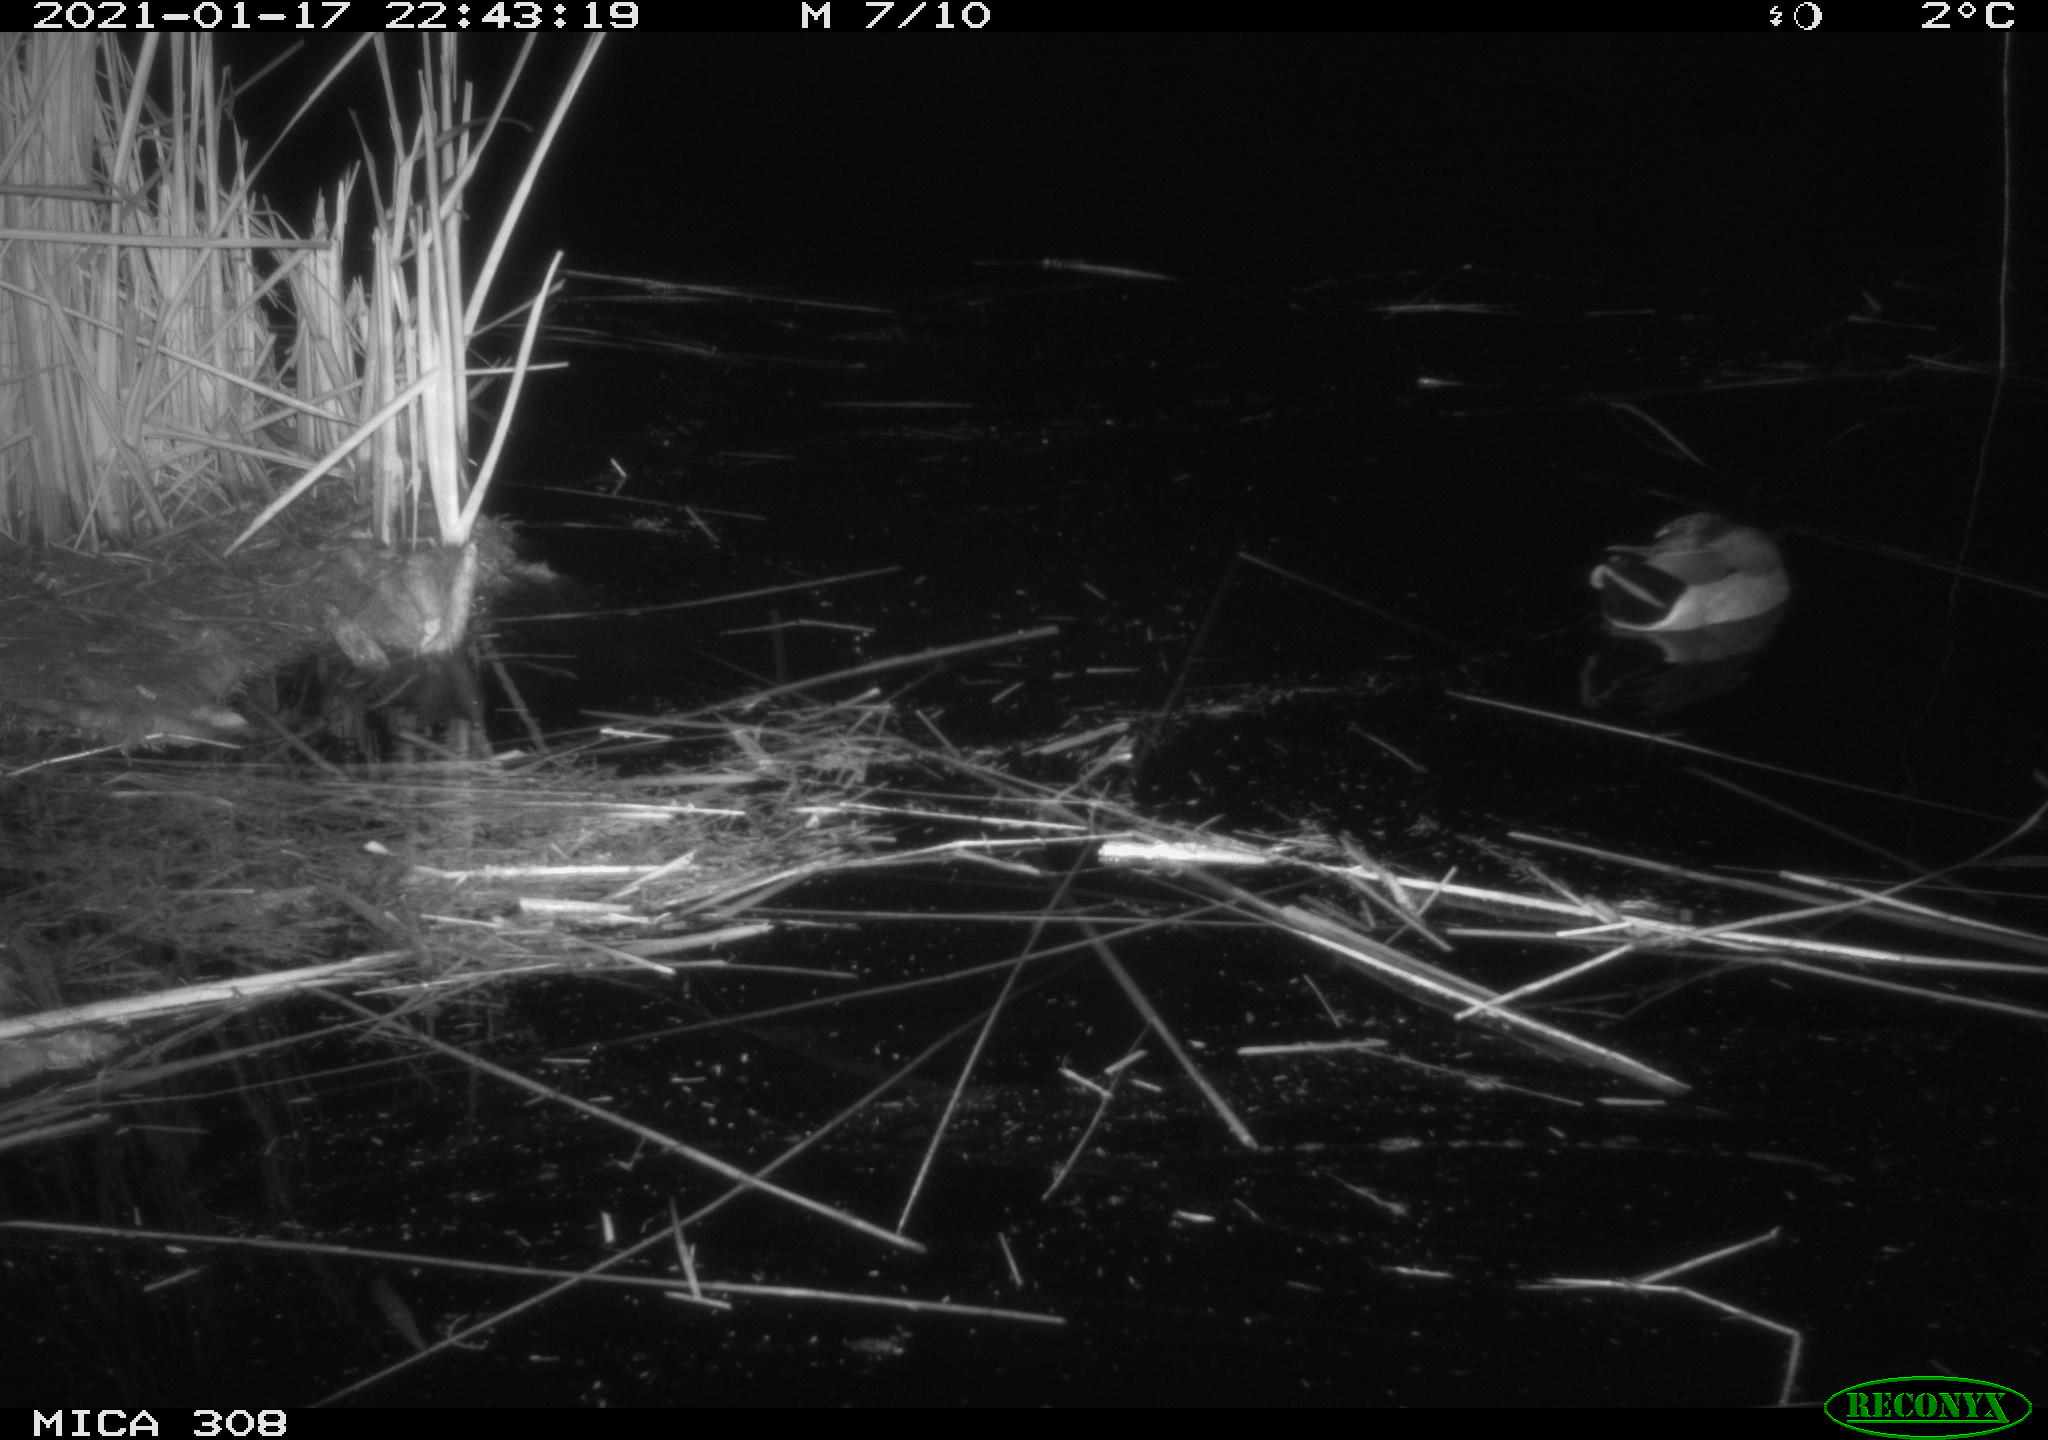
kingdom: Animalia
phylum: Chordata
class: Aves
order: Anseriformes
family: Anatidae
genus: Anas
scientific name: Anas platyrhynchos
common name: Mallard
